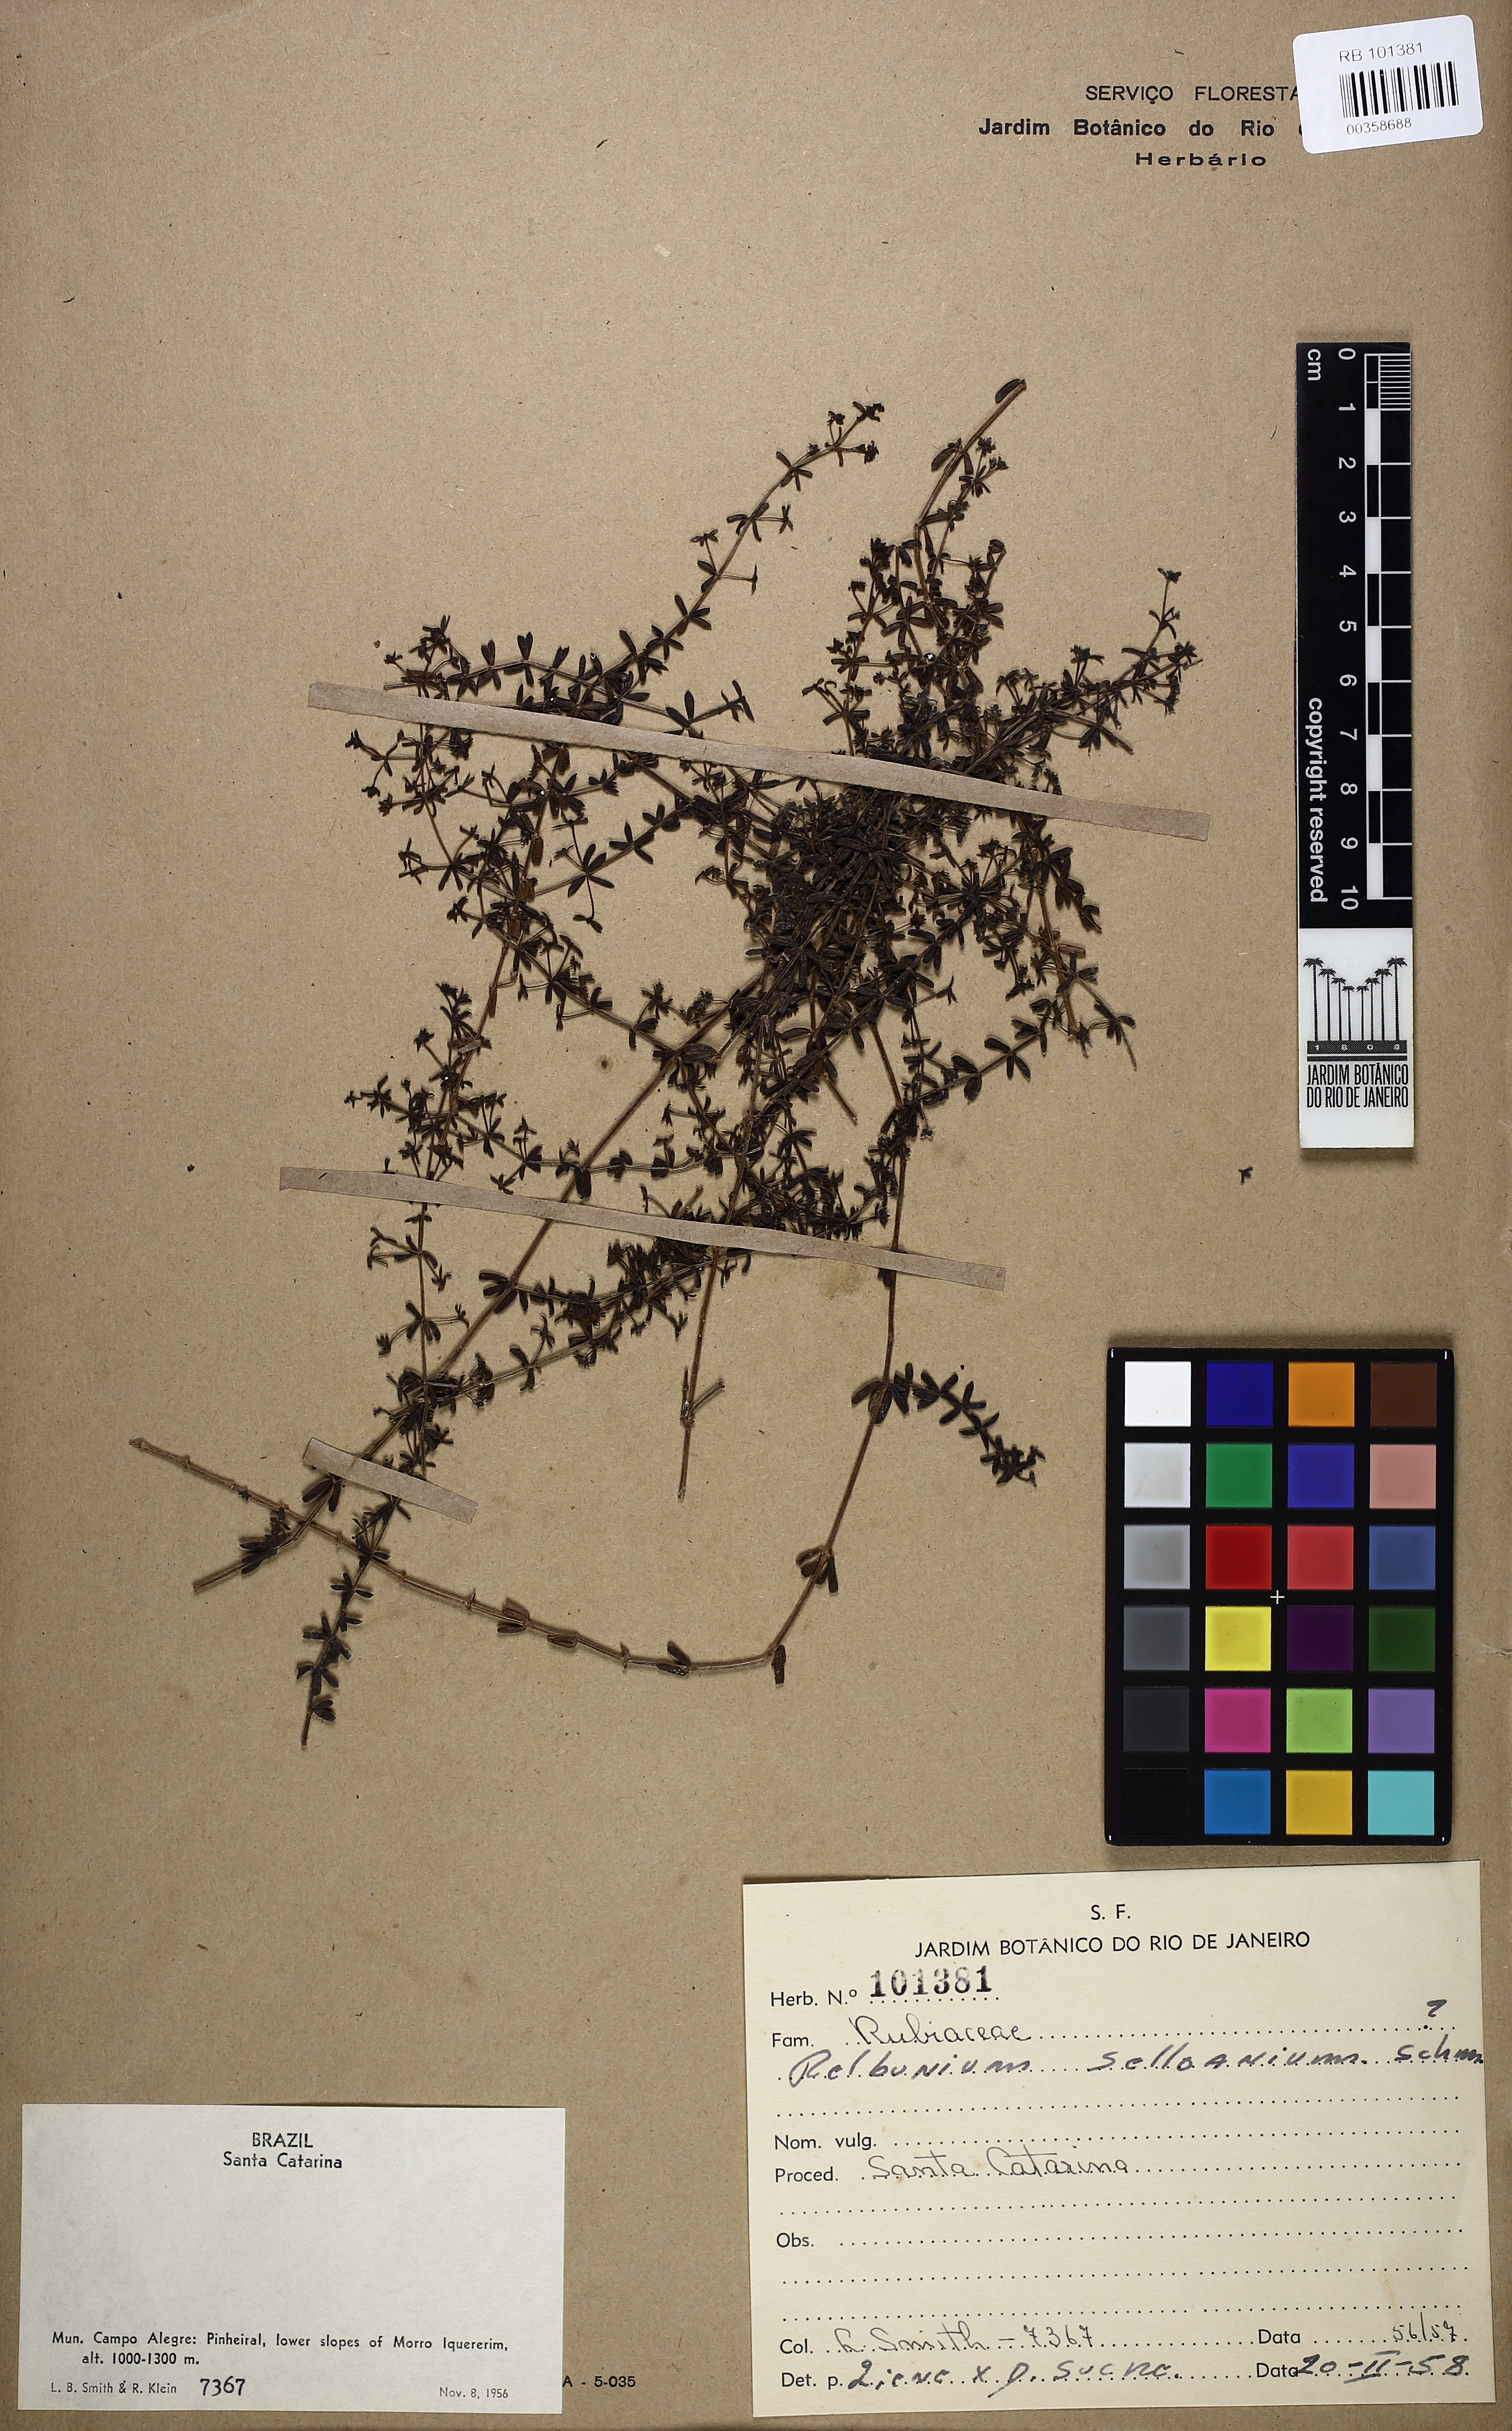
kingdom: Plantae
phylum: Tracheophyta
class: Magnoliopsida
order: Gentianales
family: Rubiaceae
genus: Galium
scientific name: Galium sellowianum
